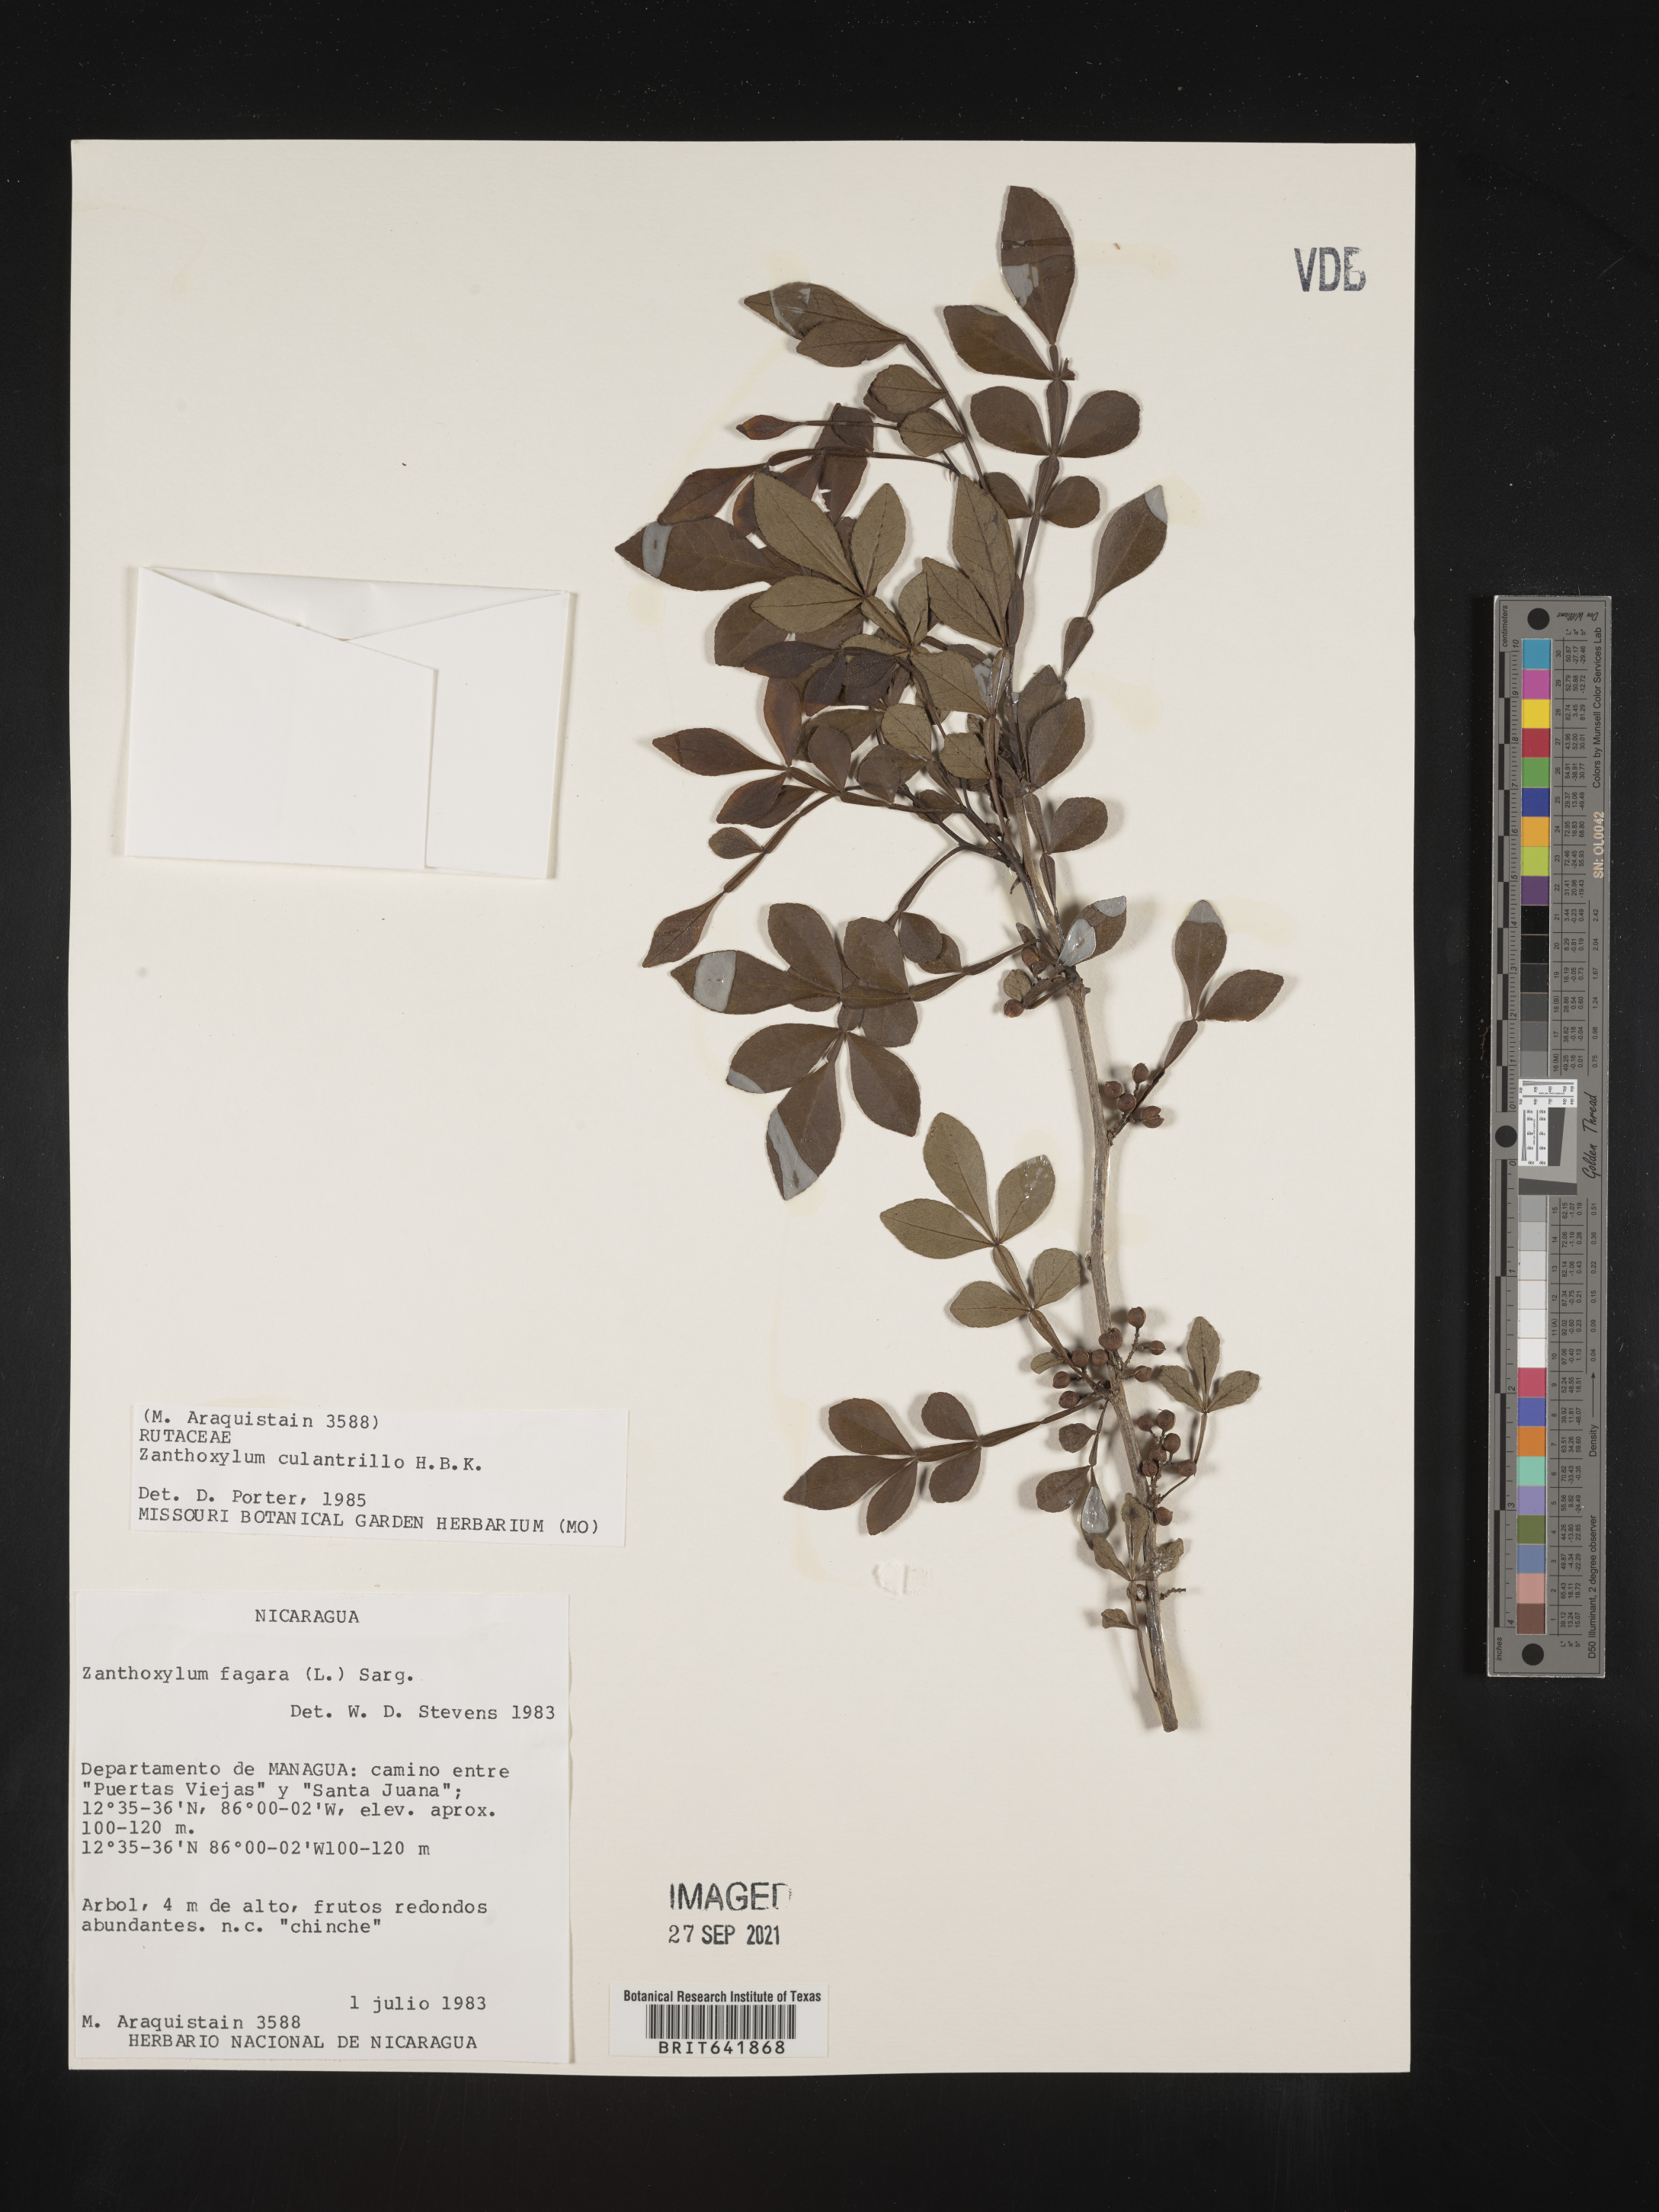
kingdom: Plantae
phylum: Tracheophyta
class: Magnoliopsida
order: Sapindales
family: Rutaceae
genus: Zanthoxylum
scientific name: Zanthoxylum
